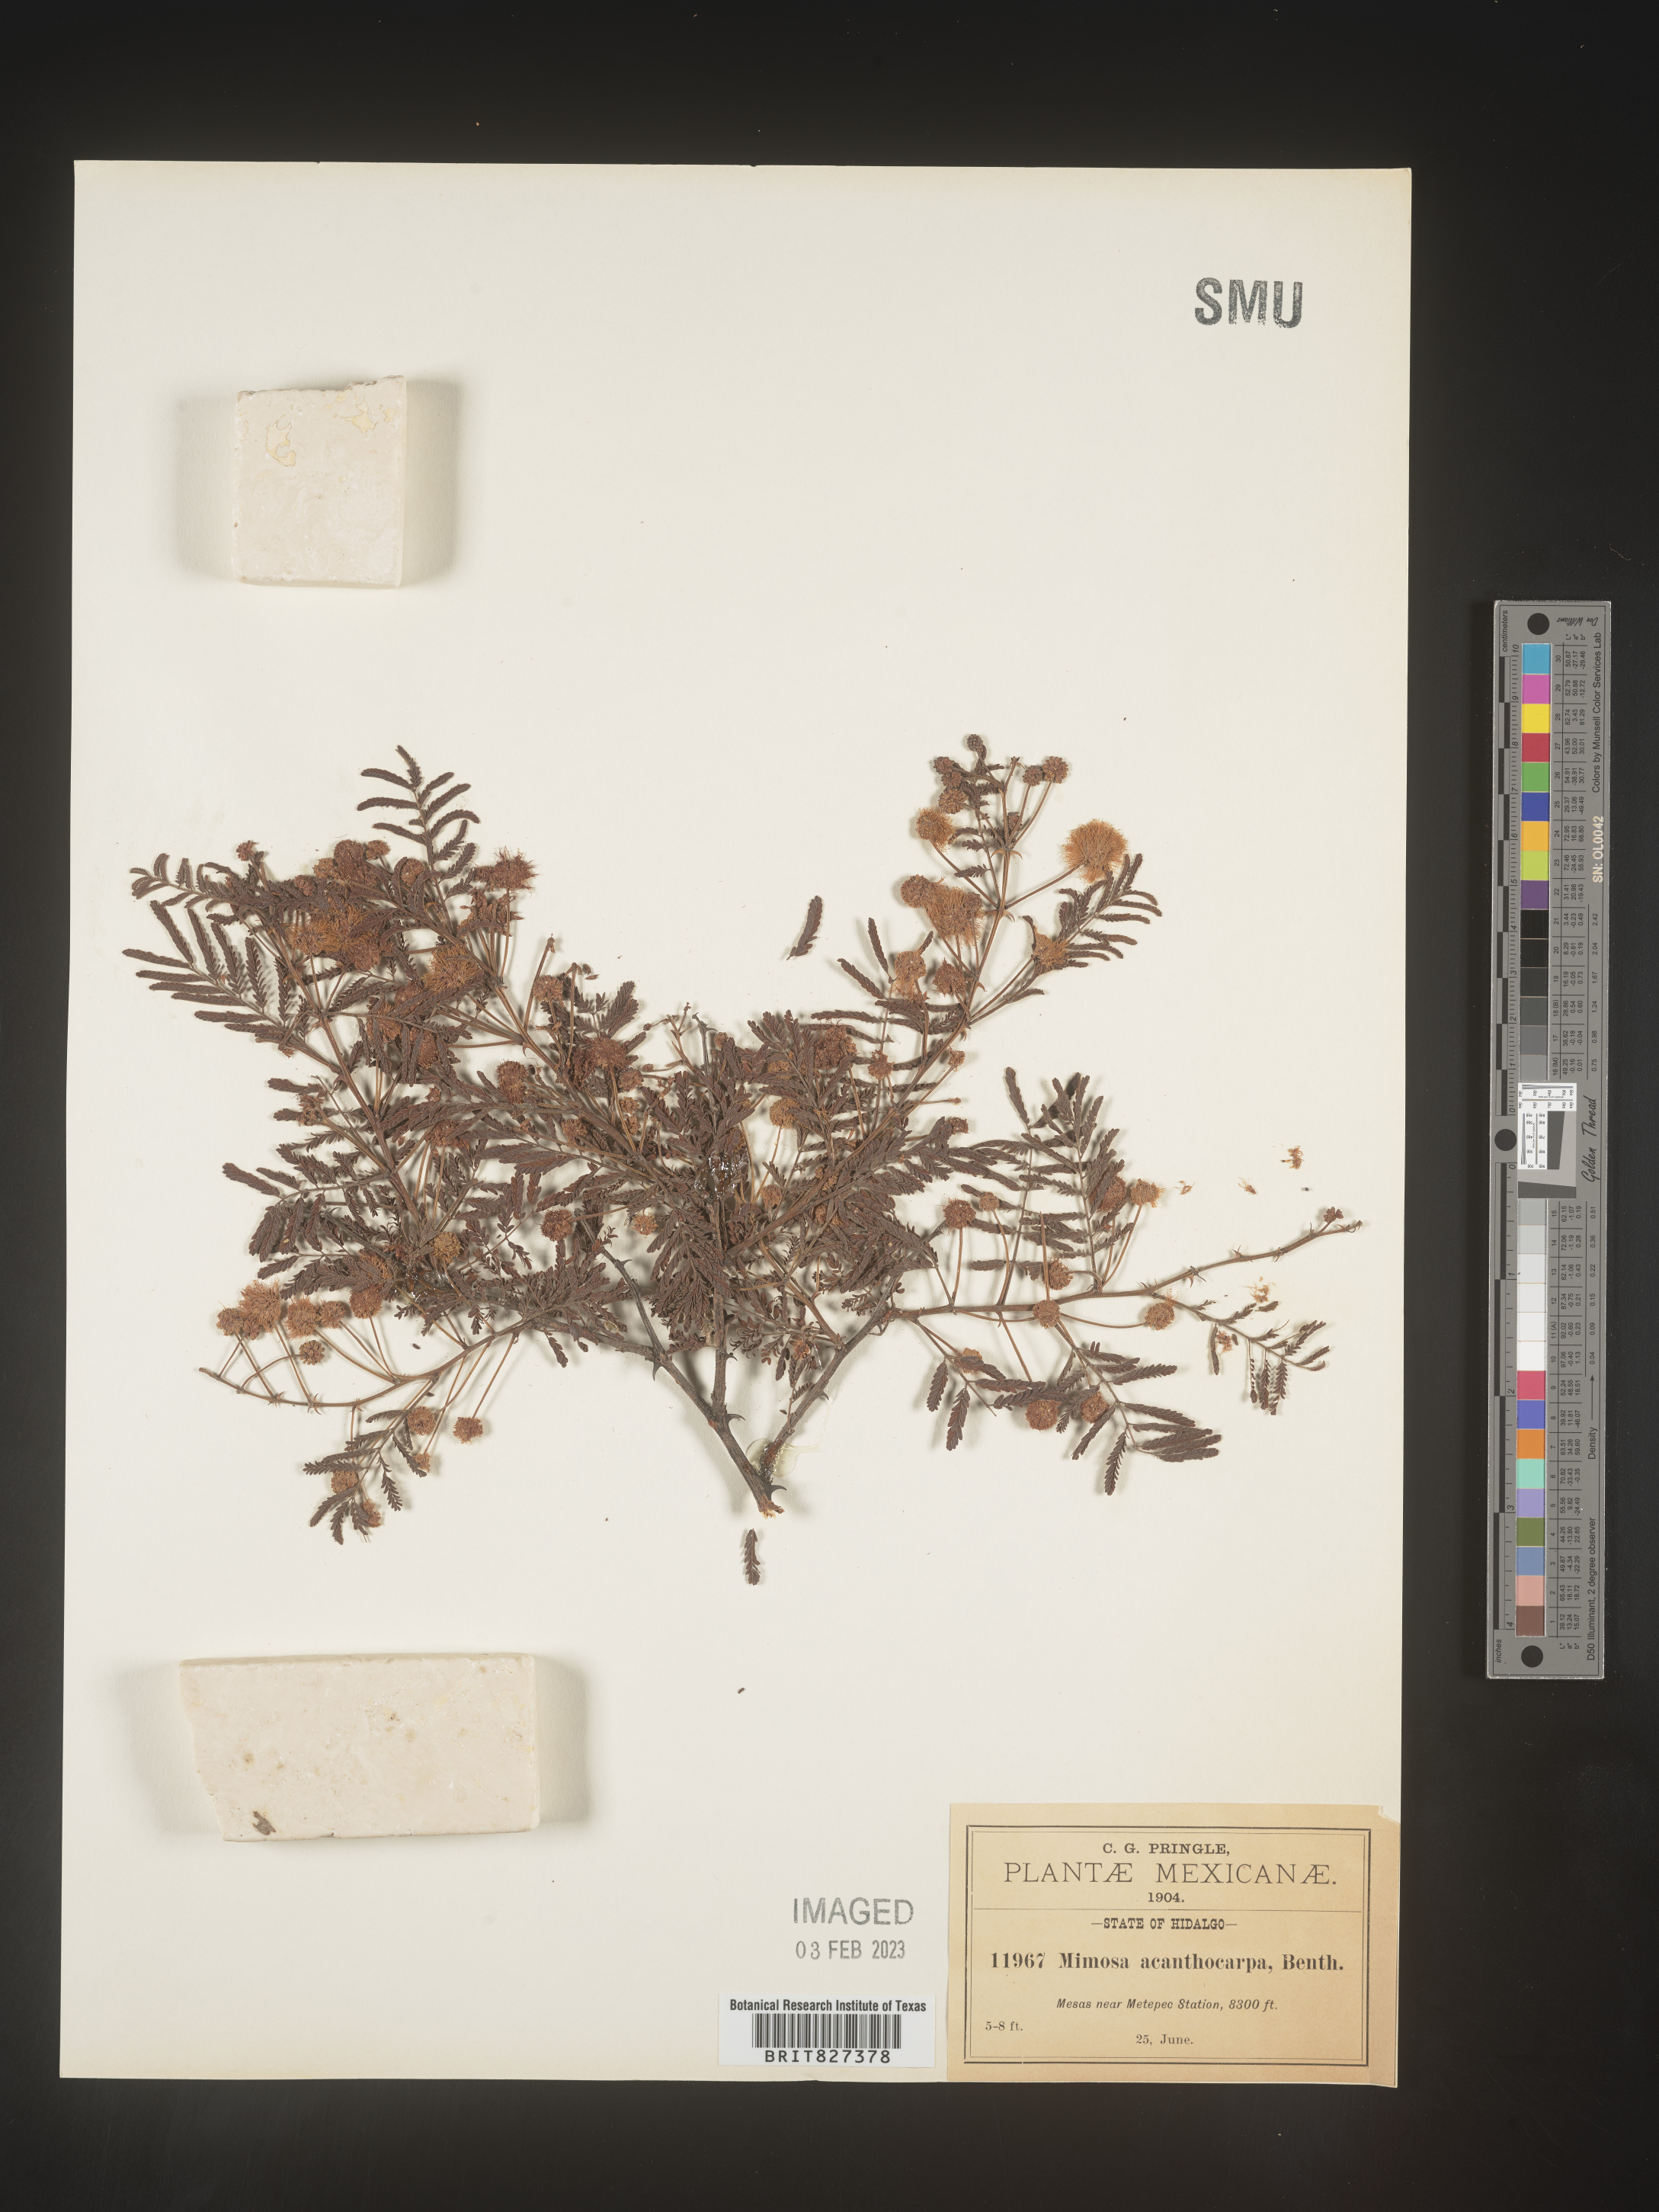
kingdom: Plantae
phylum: Tracheophyta
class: Magnoliopsida
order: Fabales
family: Fabaceae
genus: Mimosa
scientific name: Mimosa
